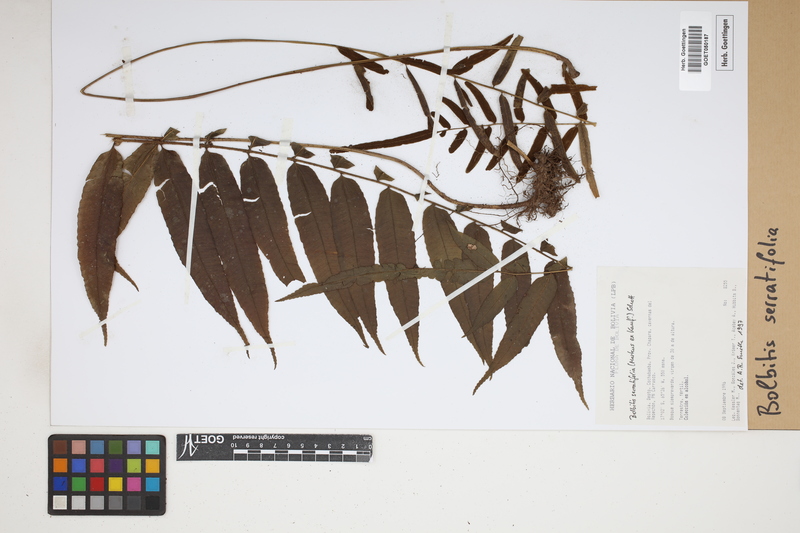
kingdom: Plantae
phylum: Tracheophyta
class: Polypodiopsida
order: Polypodiales
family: Dryopteridaceae
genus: Bolbitis
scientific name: Bolbitis serratifolia
